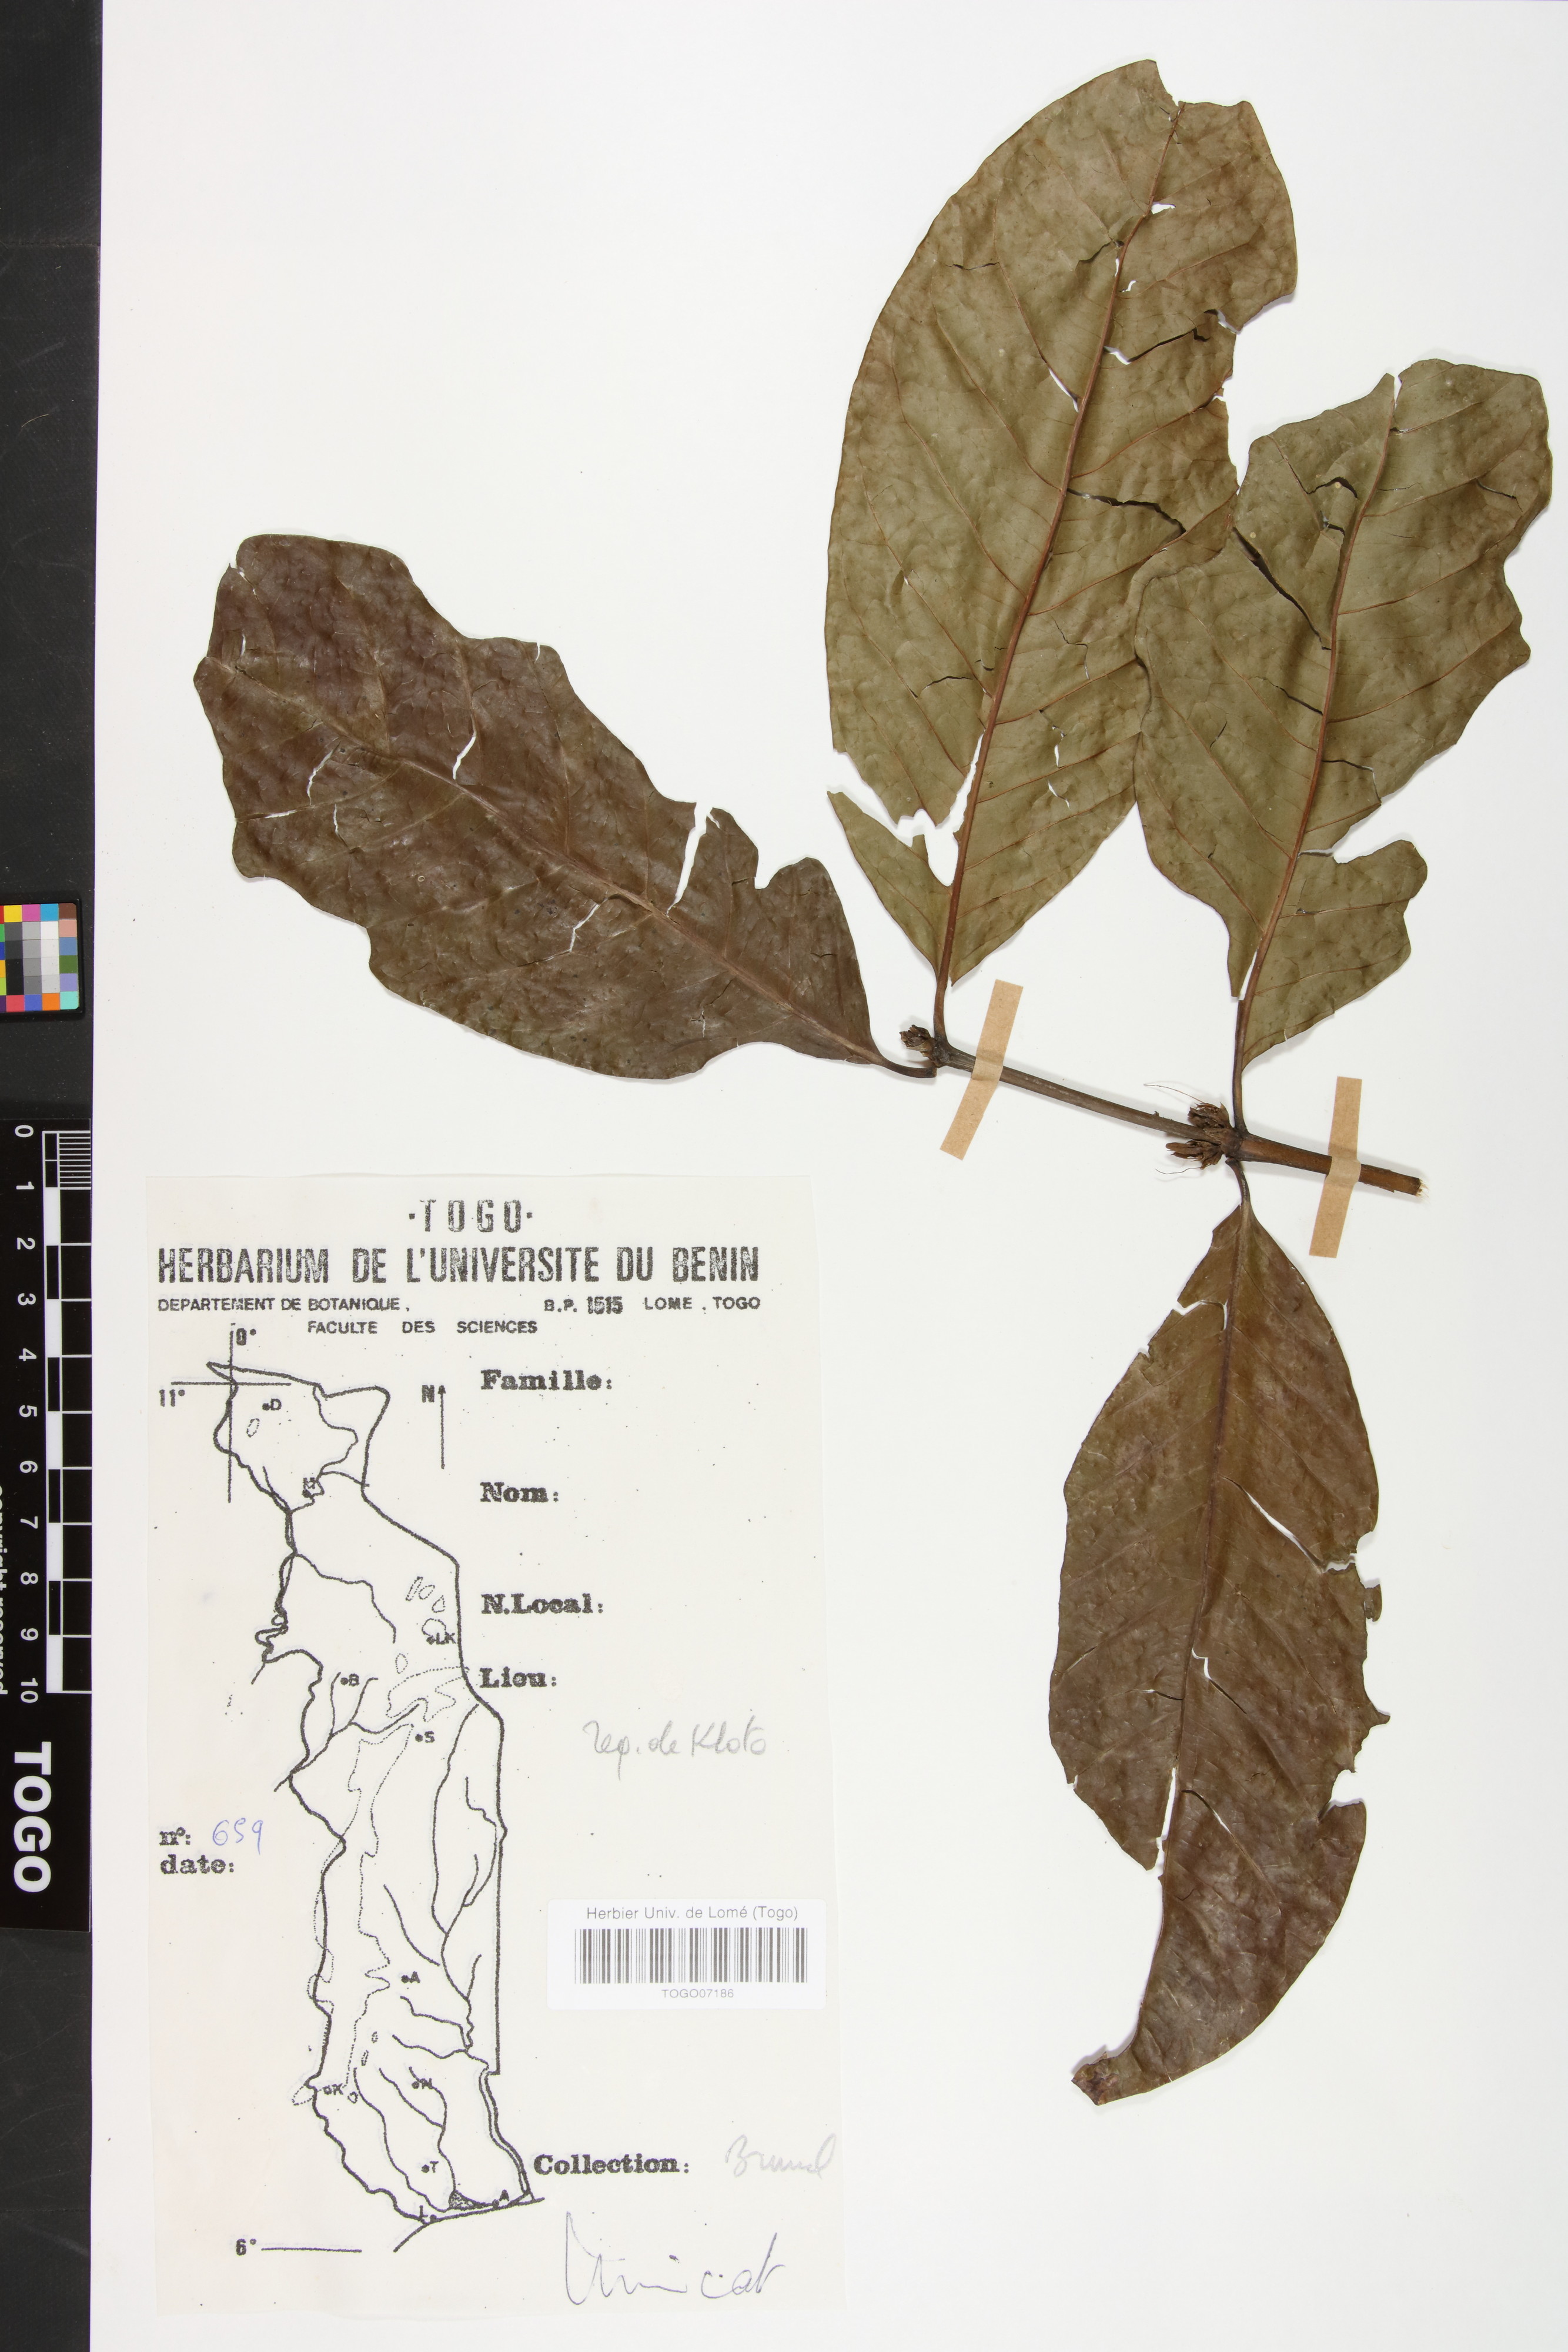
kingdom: Plantae
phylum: Tracheophyta
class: Magnoliopsida
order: Gentianales
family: Rubiaceae
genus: Coffea
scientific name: Coffea canephora
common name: Robusta coffee
